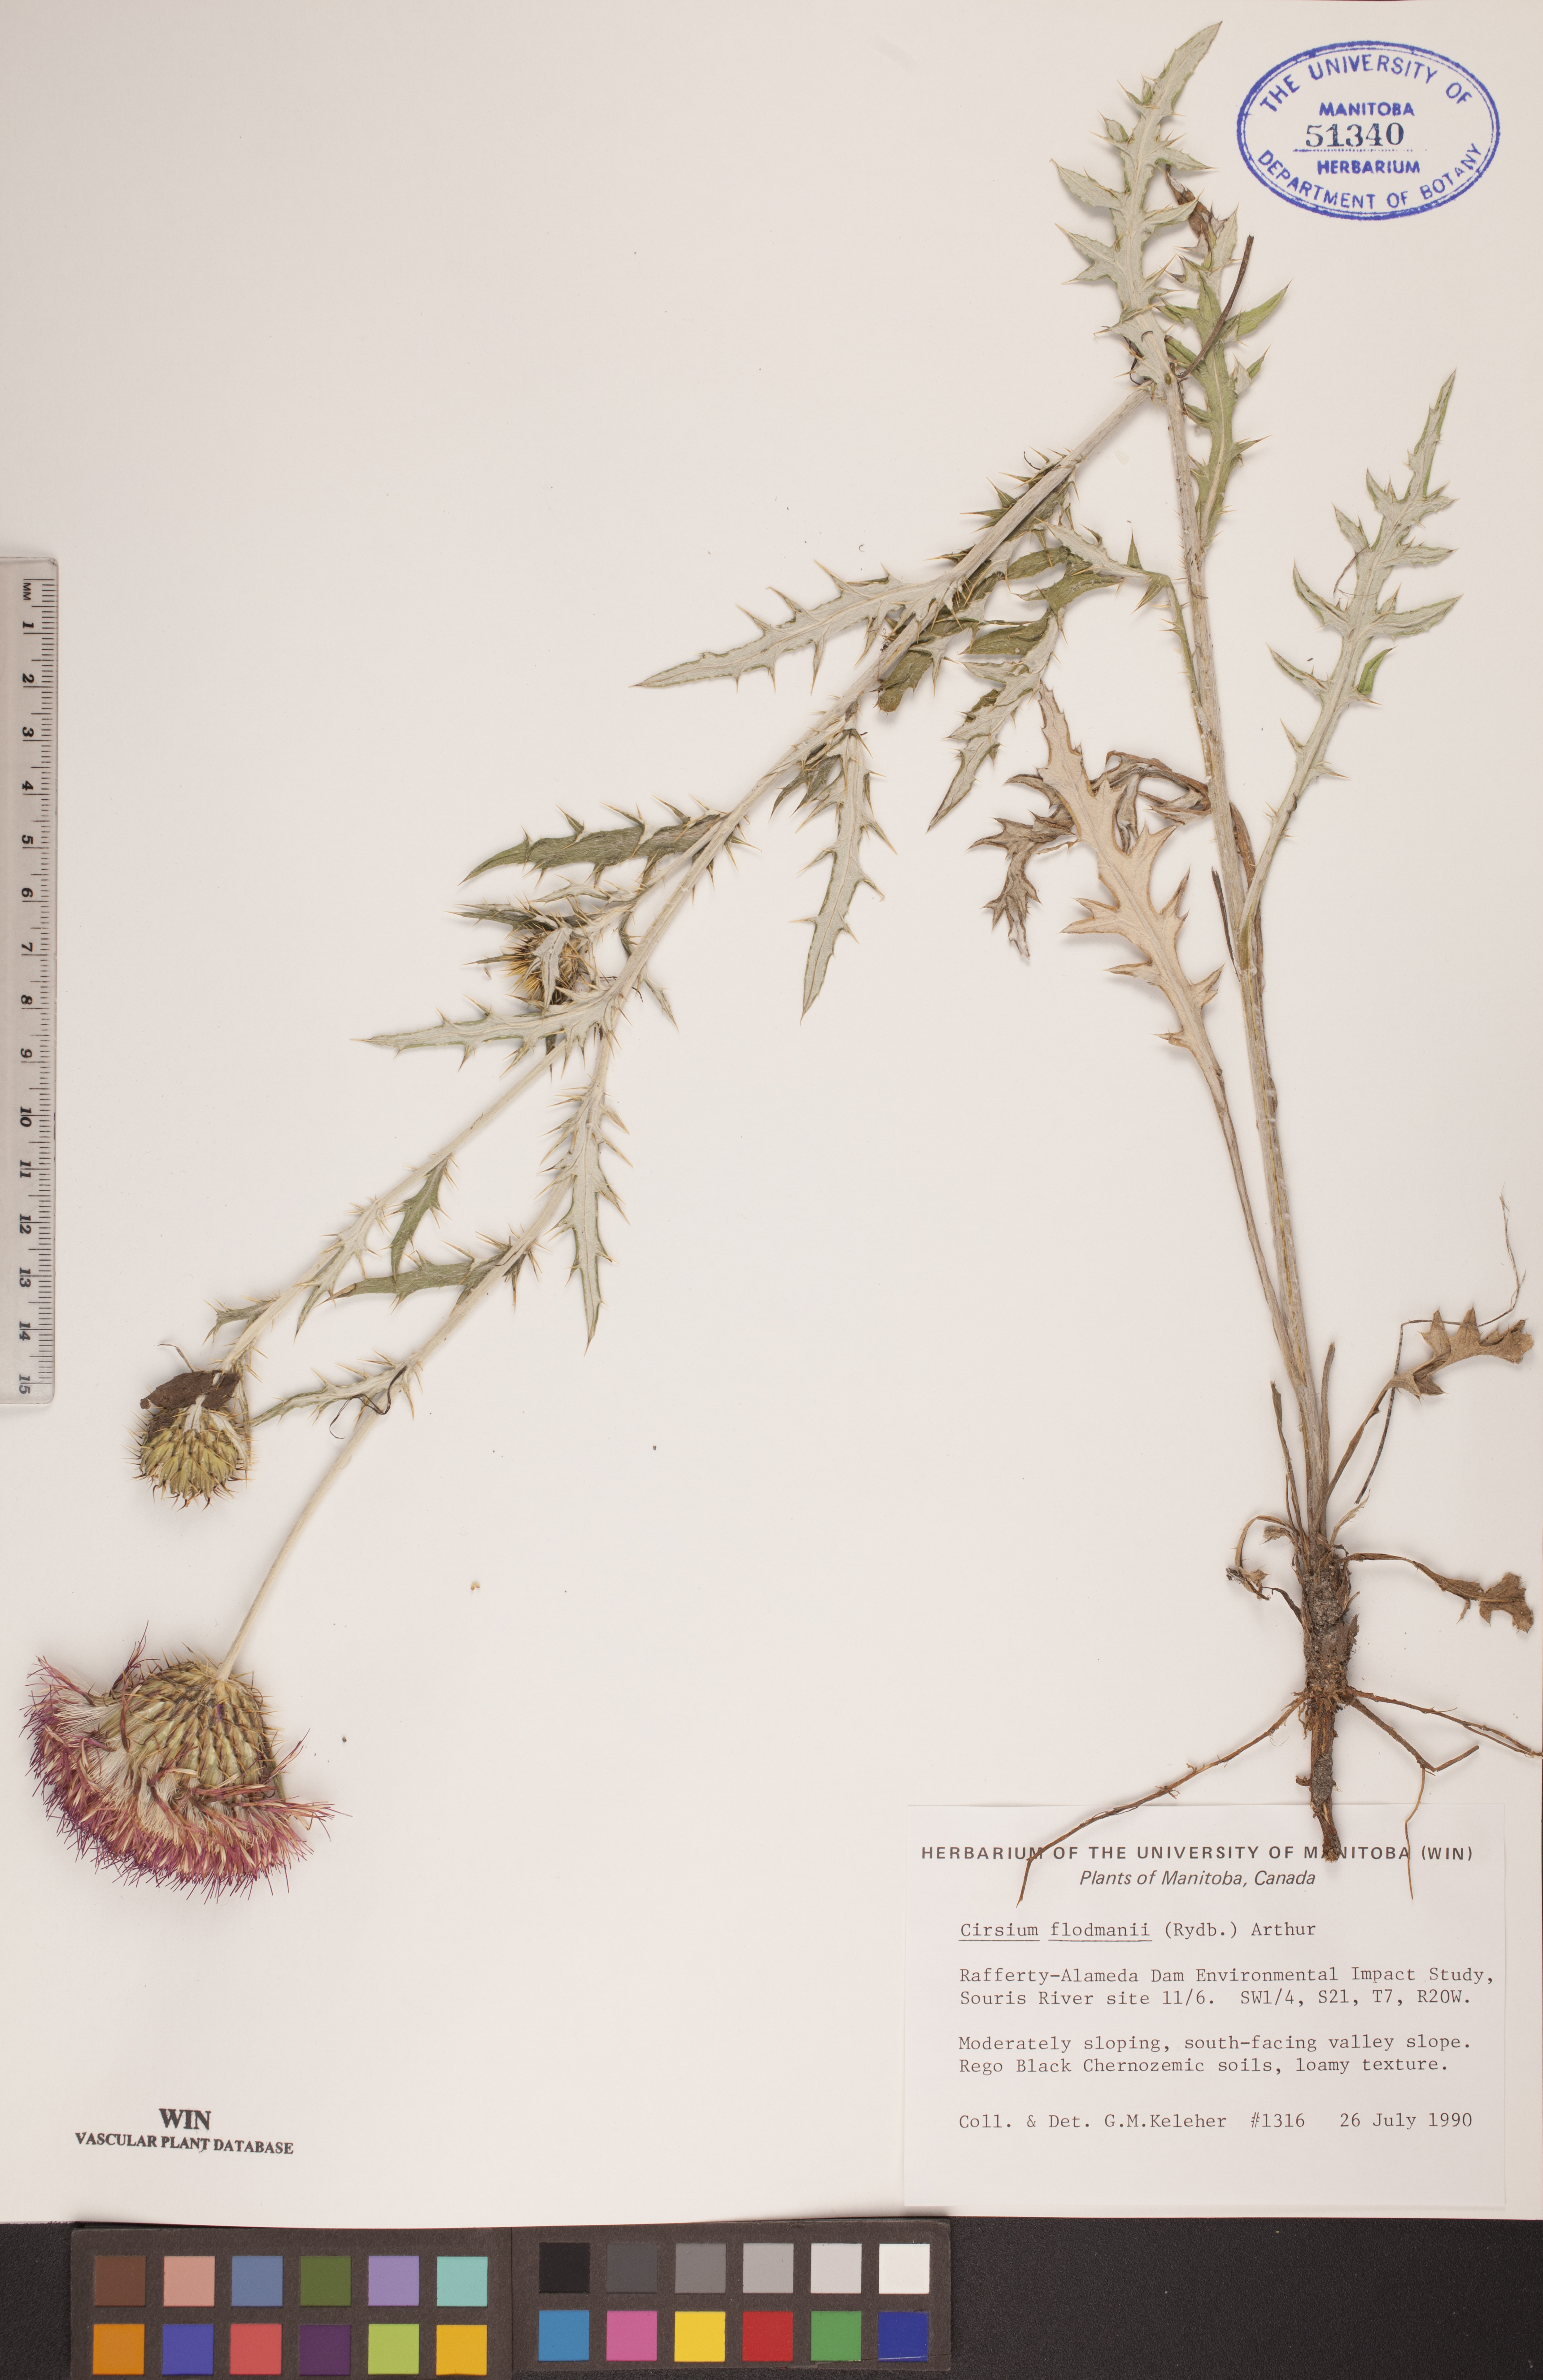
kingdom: Plantae
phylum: Tracheophyta
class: Magnoliopsida
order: Asterales
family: Asteraceae
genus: Cirsium
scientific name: Cirsium flodmanii
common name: Flodman's thistle
